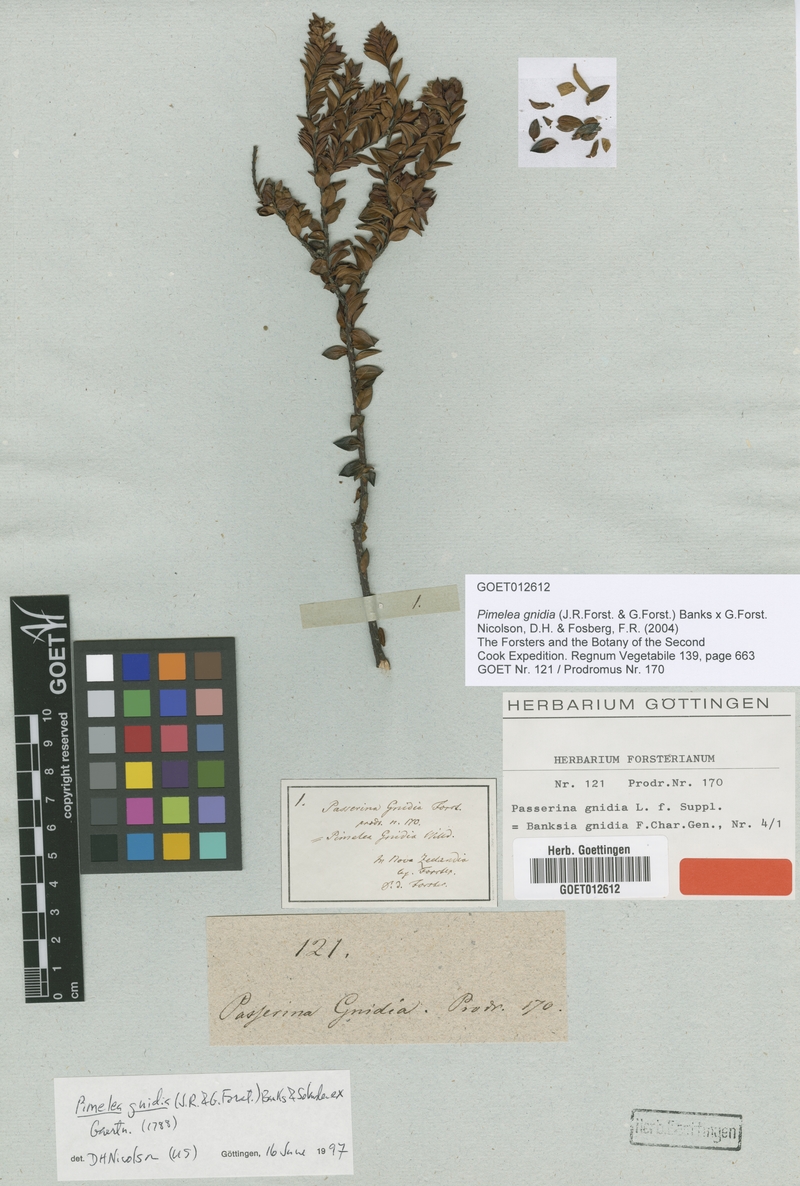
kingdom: Plantae
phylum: Tracheophyta
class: Magnoliopsida
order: Malvales
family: Thymelaeaceae
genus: Pimelea
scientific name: Pimelea gnidia
